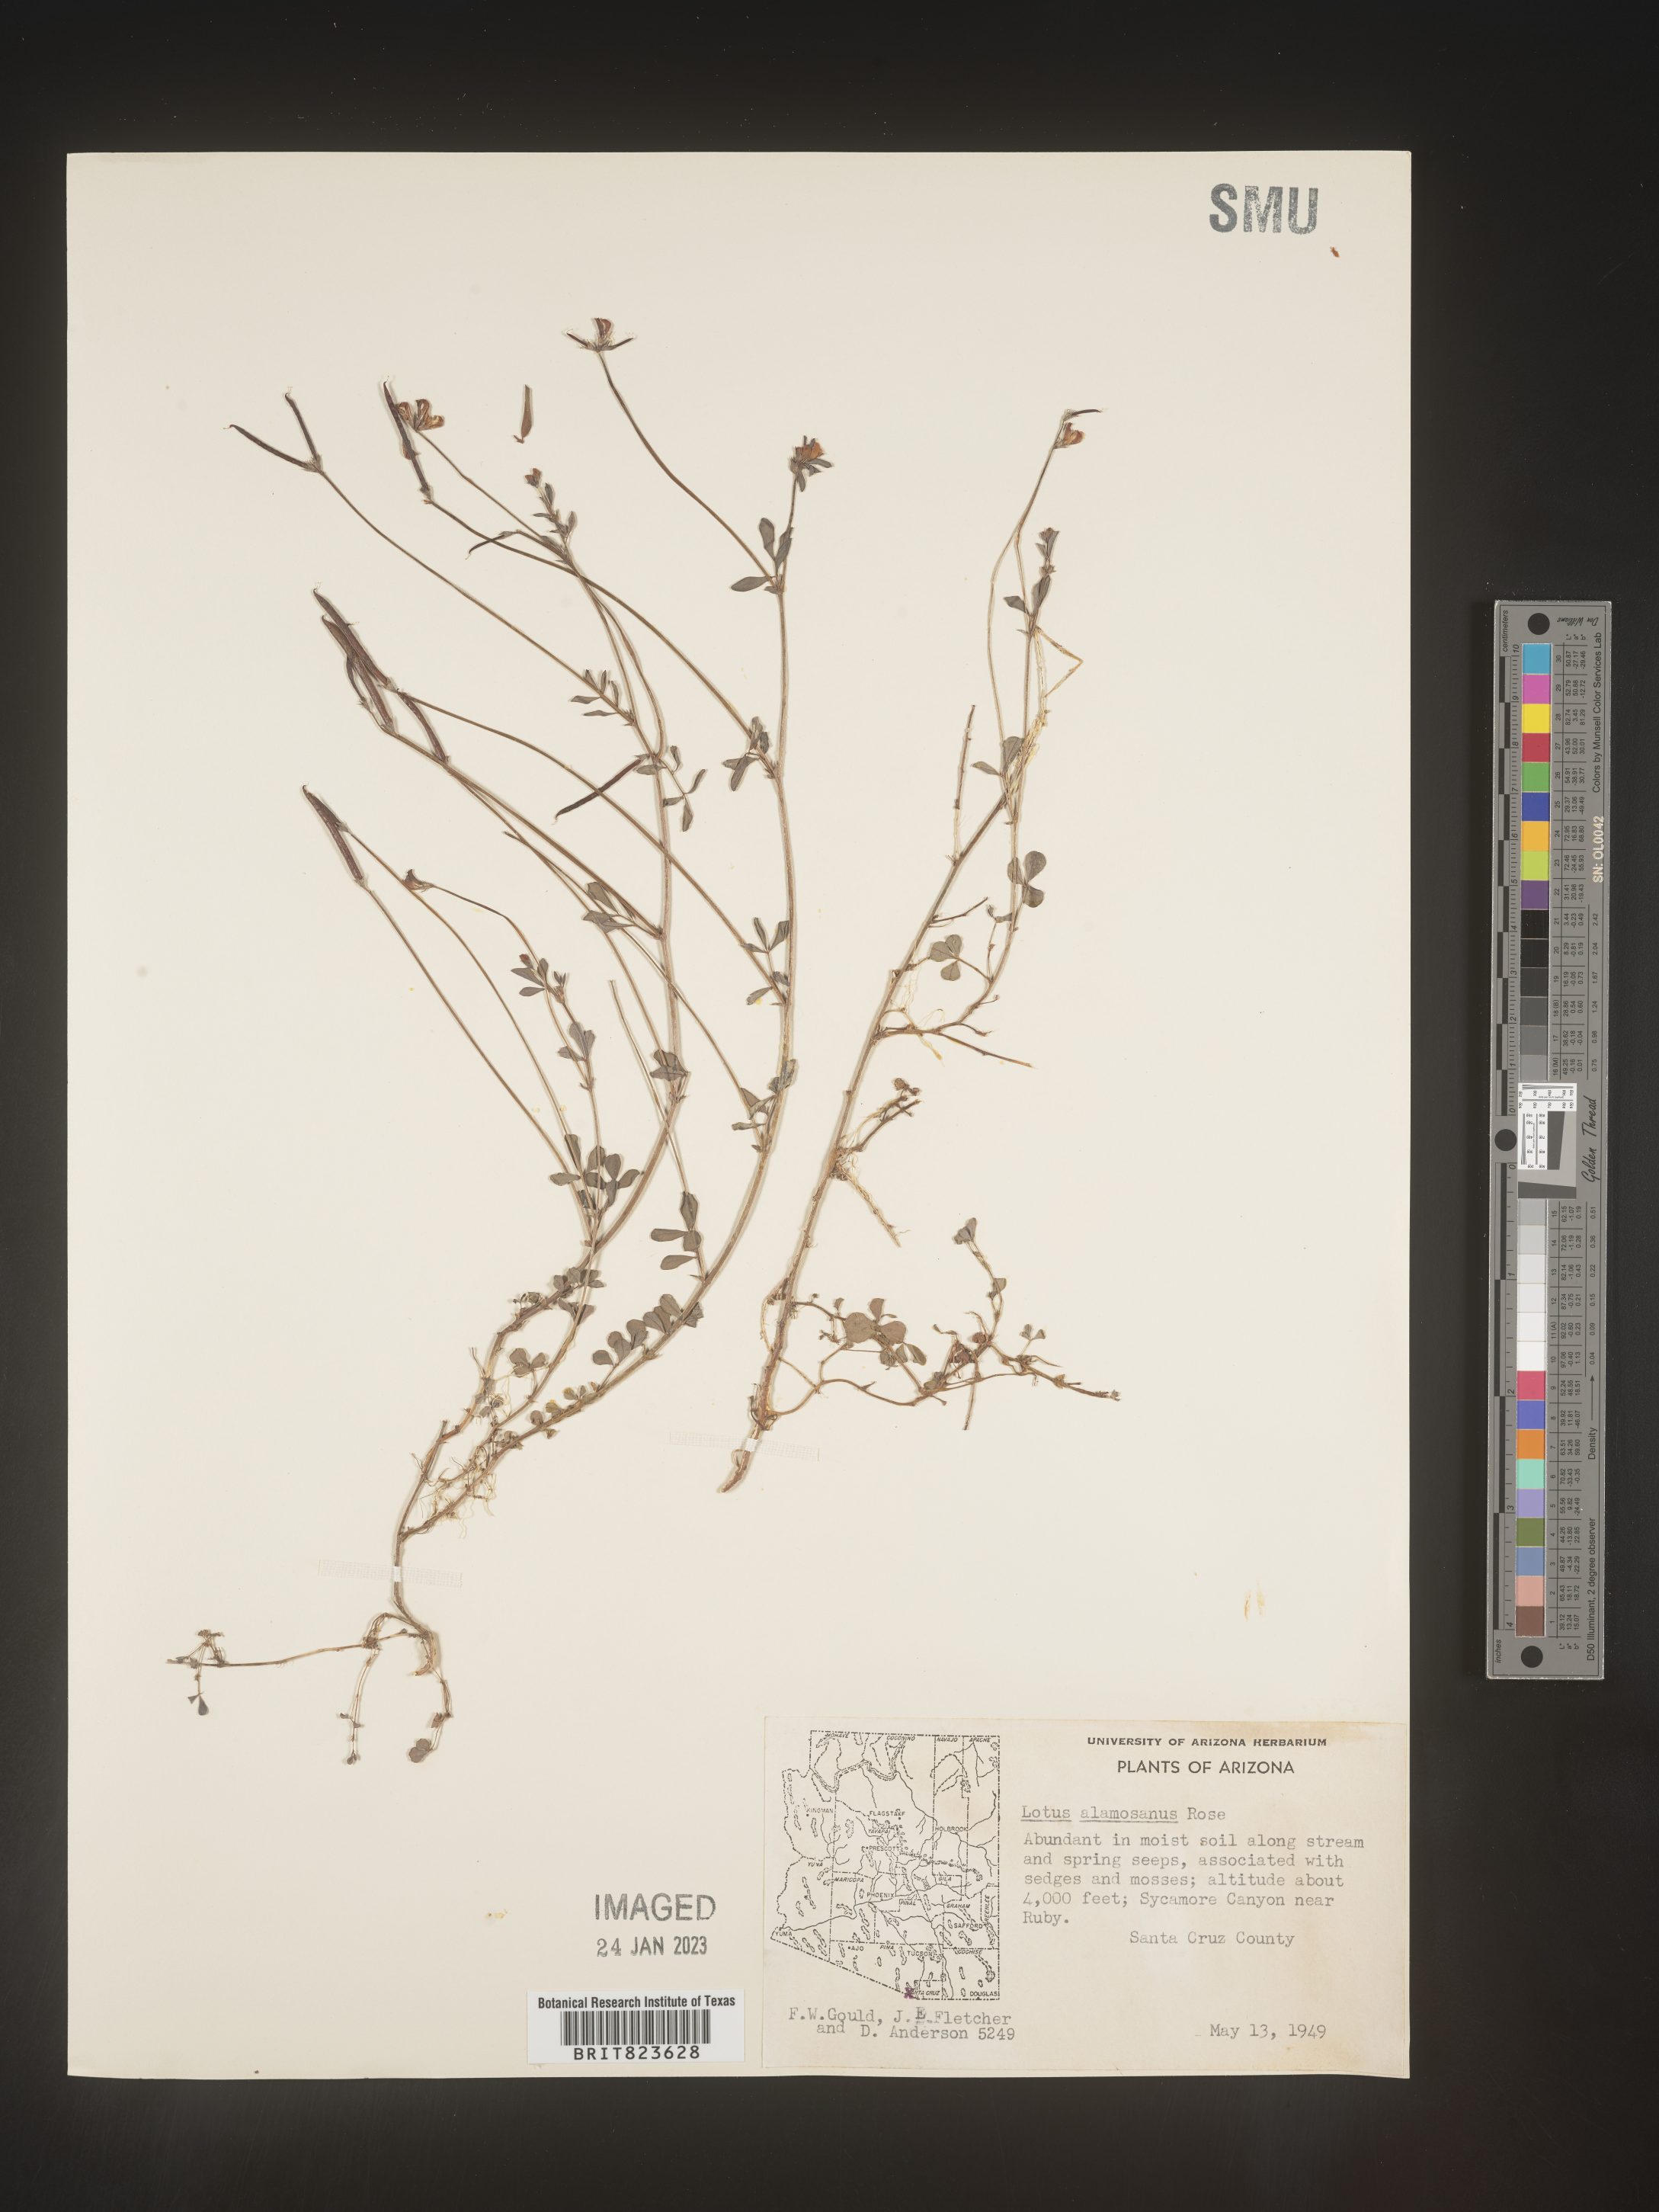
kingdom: Plantae
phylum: Tracheophyta
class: Magnoliopsida
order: Fabales
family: Fabaceae
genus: Lotus
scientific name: Lotus
